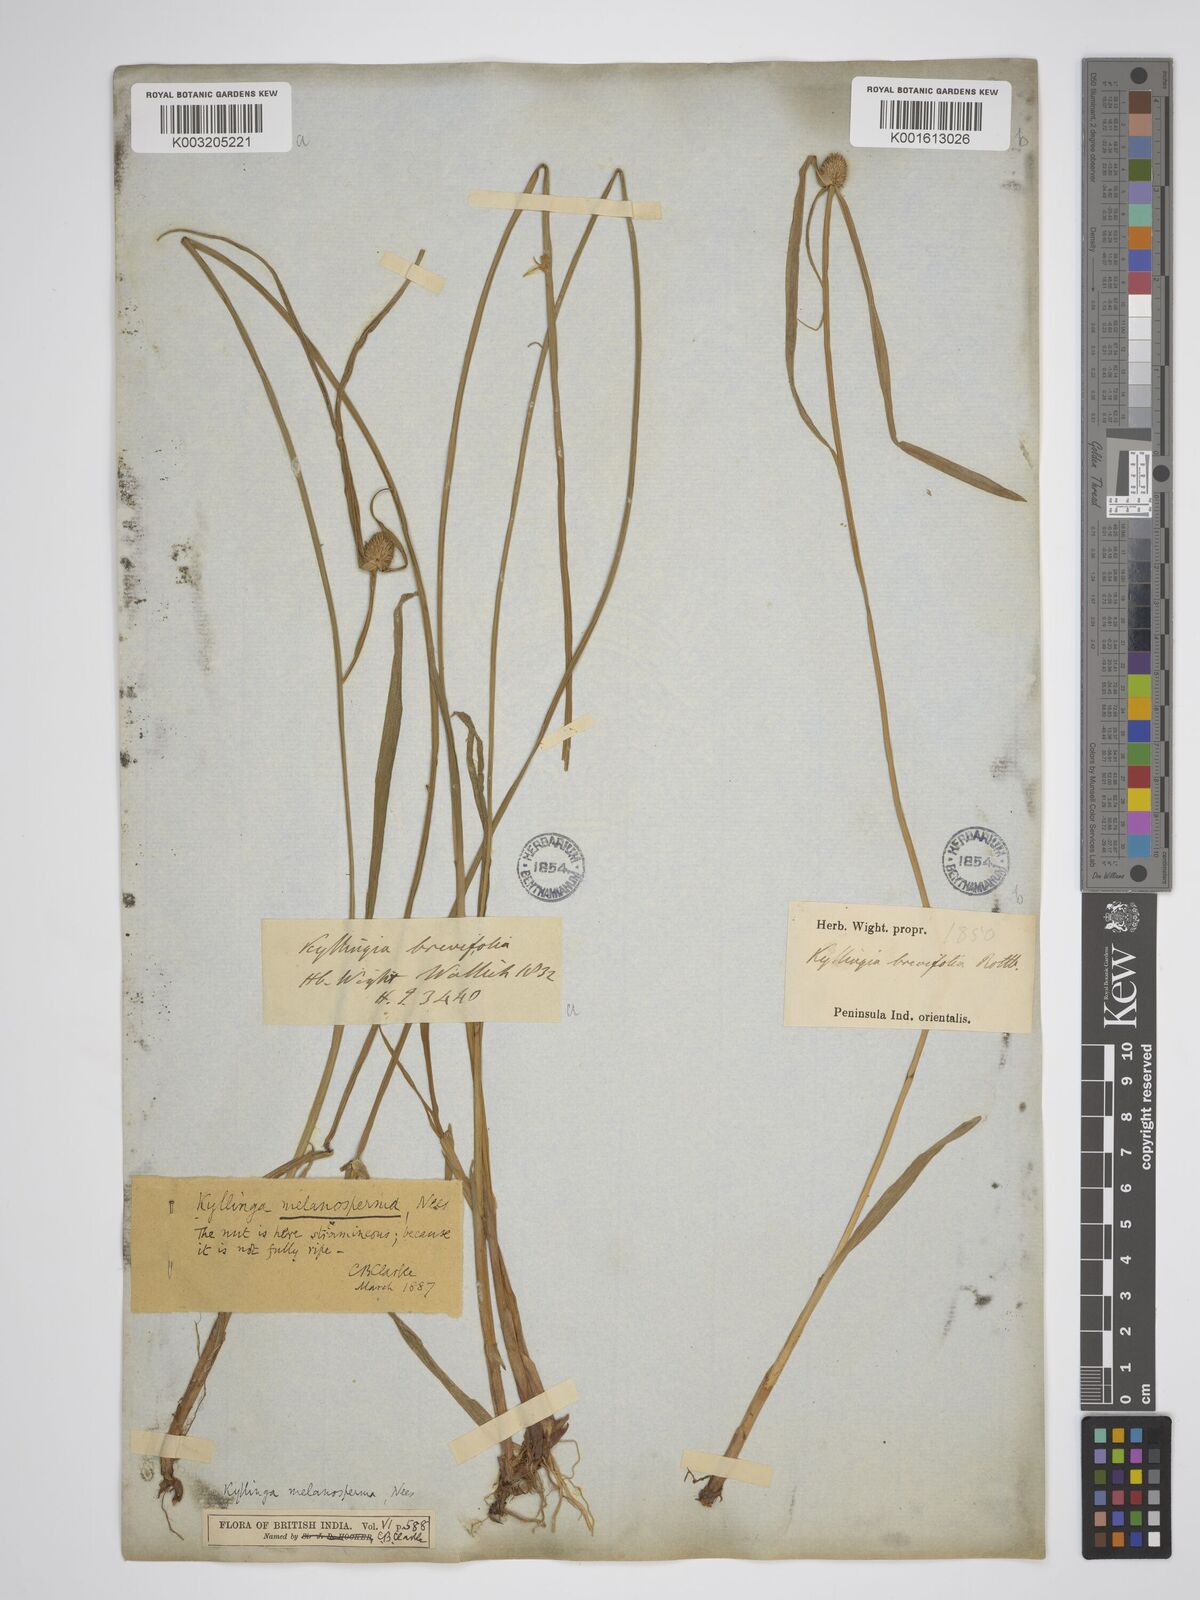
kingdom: Plantae
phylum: Tracheophyta
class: Liliopsida
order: Poales
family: Cyperaceae
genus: Cyperus
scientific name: Cyperus melanospermus
